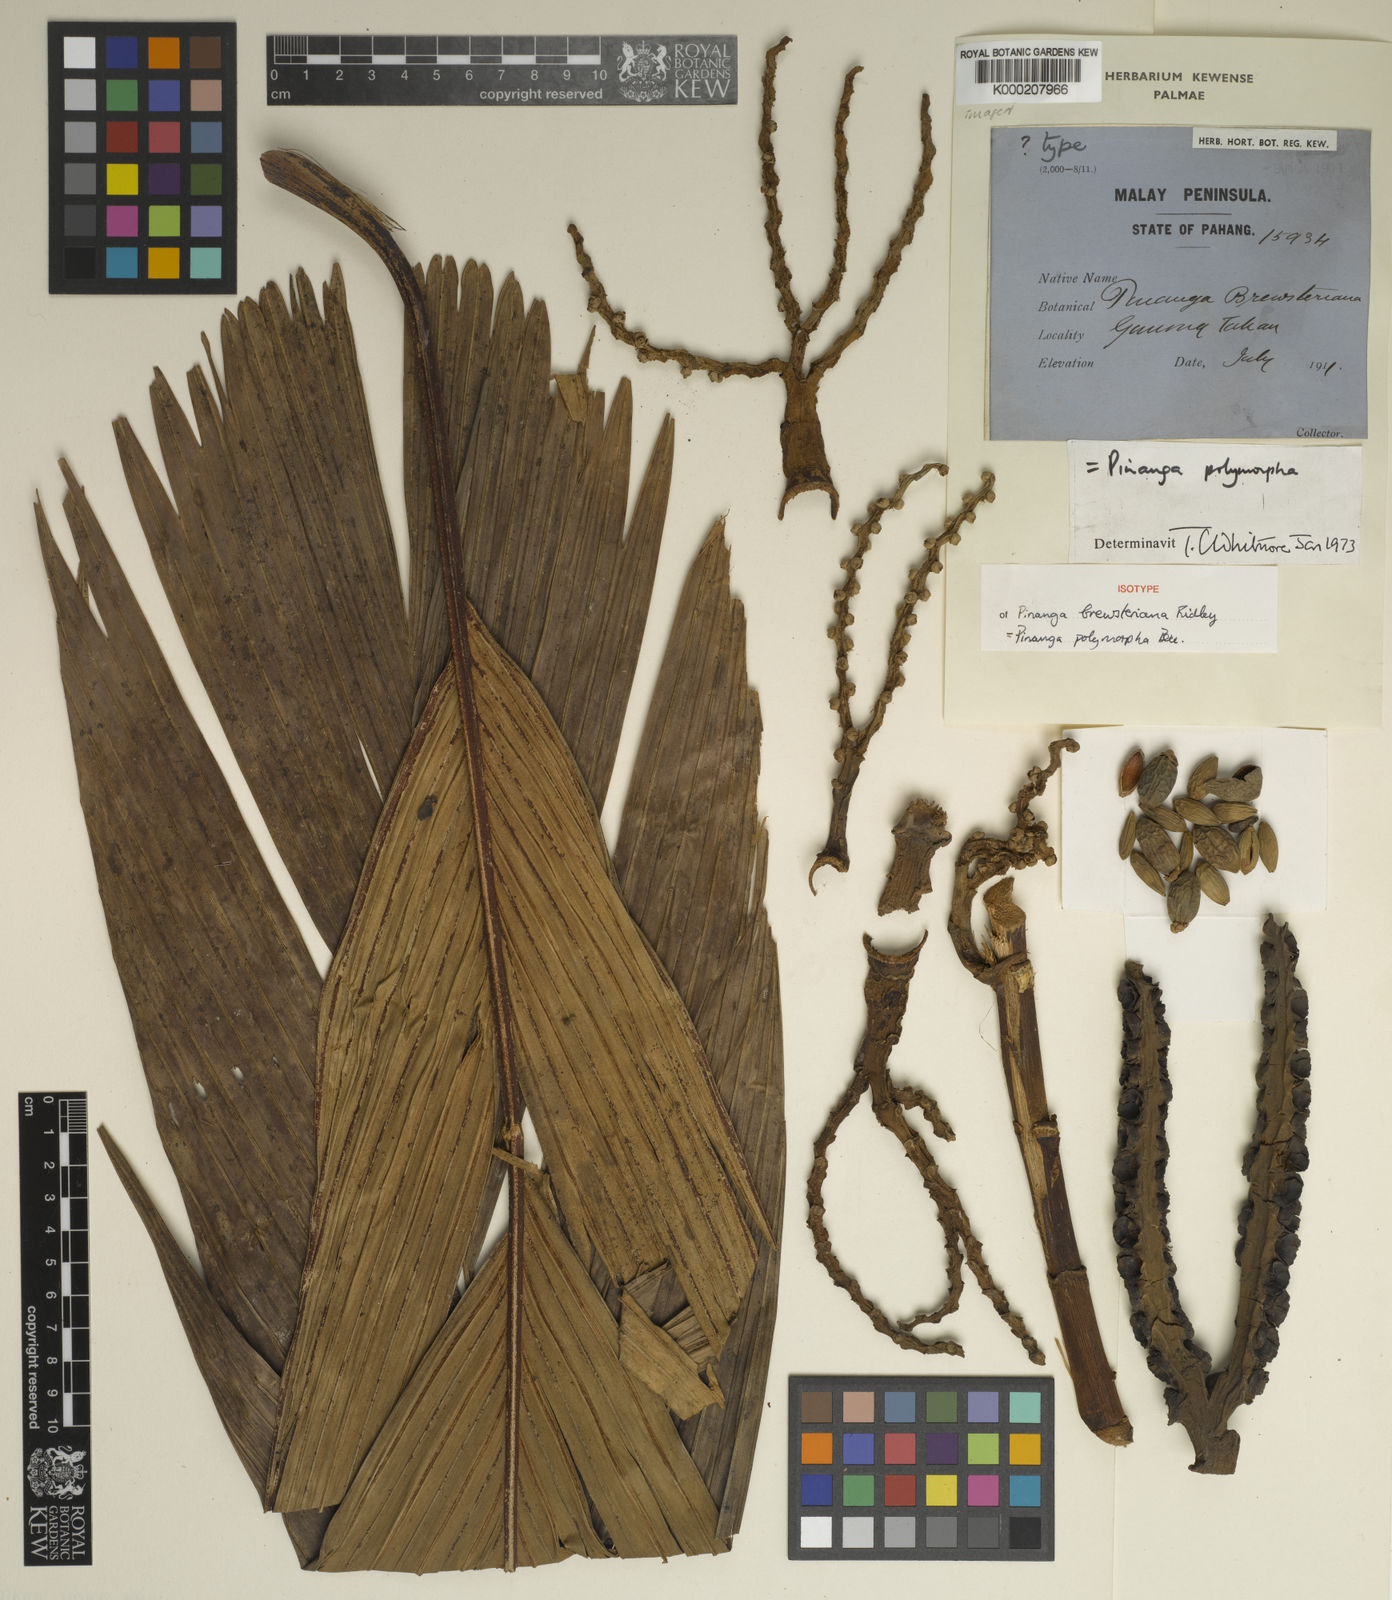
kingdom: Plantae
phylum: Tracheophyta
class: Liliopsida
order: Arecales
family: Arecaceae
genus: Pinanga
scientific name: Pinanga polymorpha
